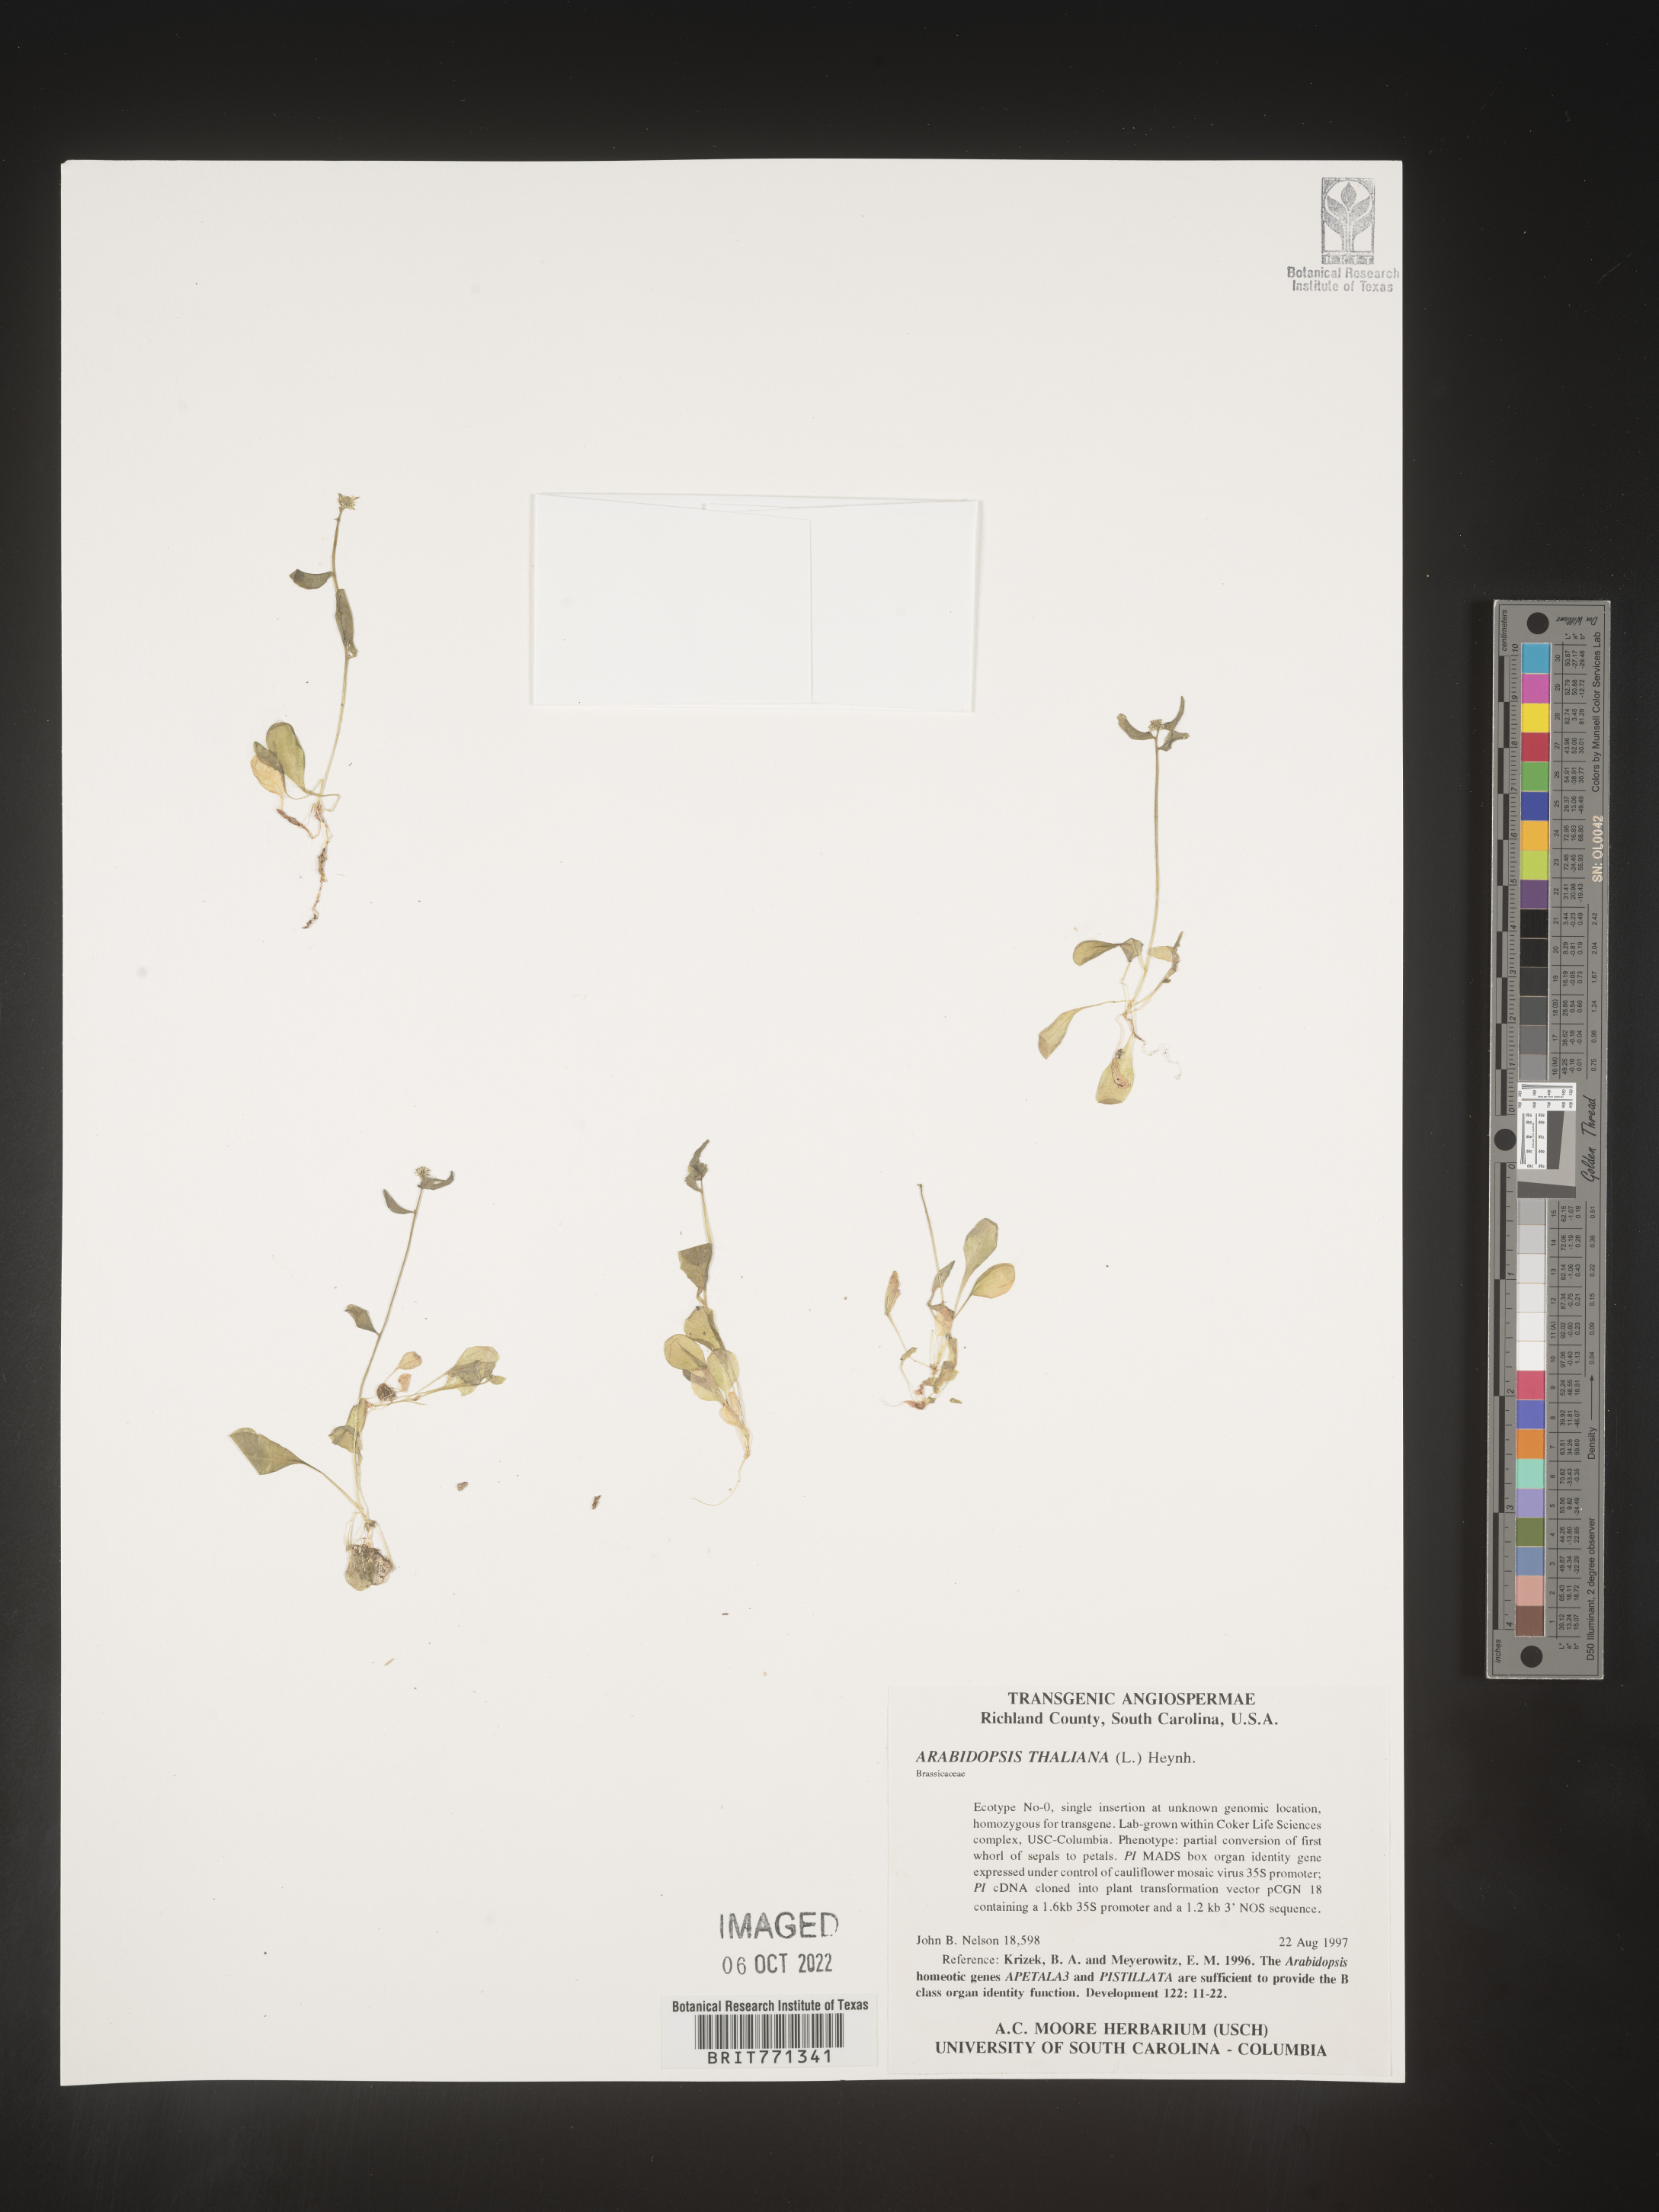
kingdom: Plantae
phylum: Tracheophyta
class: Magnoliopsida
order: Brassicales
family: Brassicaceae
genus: Arabis
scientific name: Arabis
